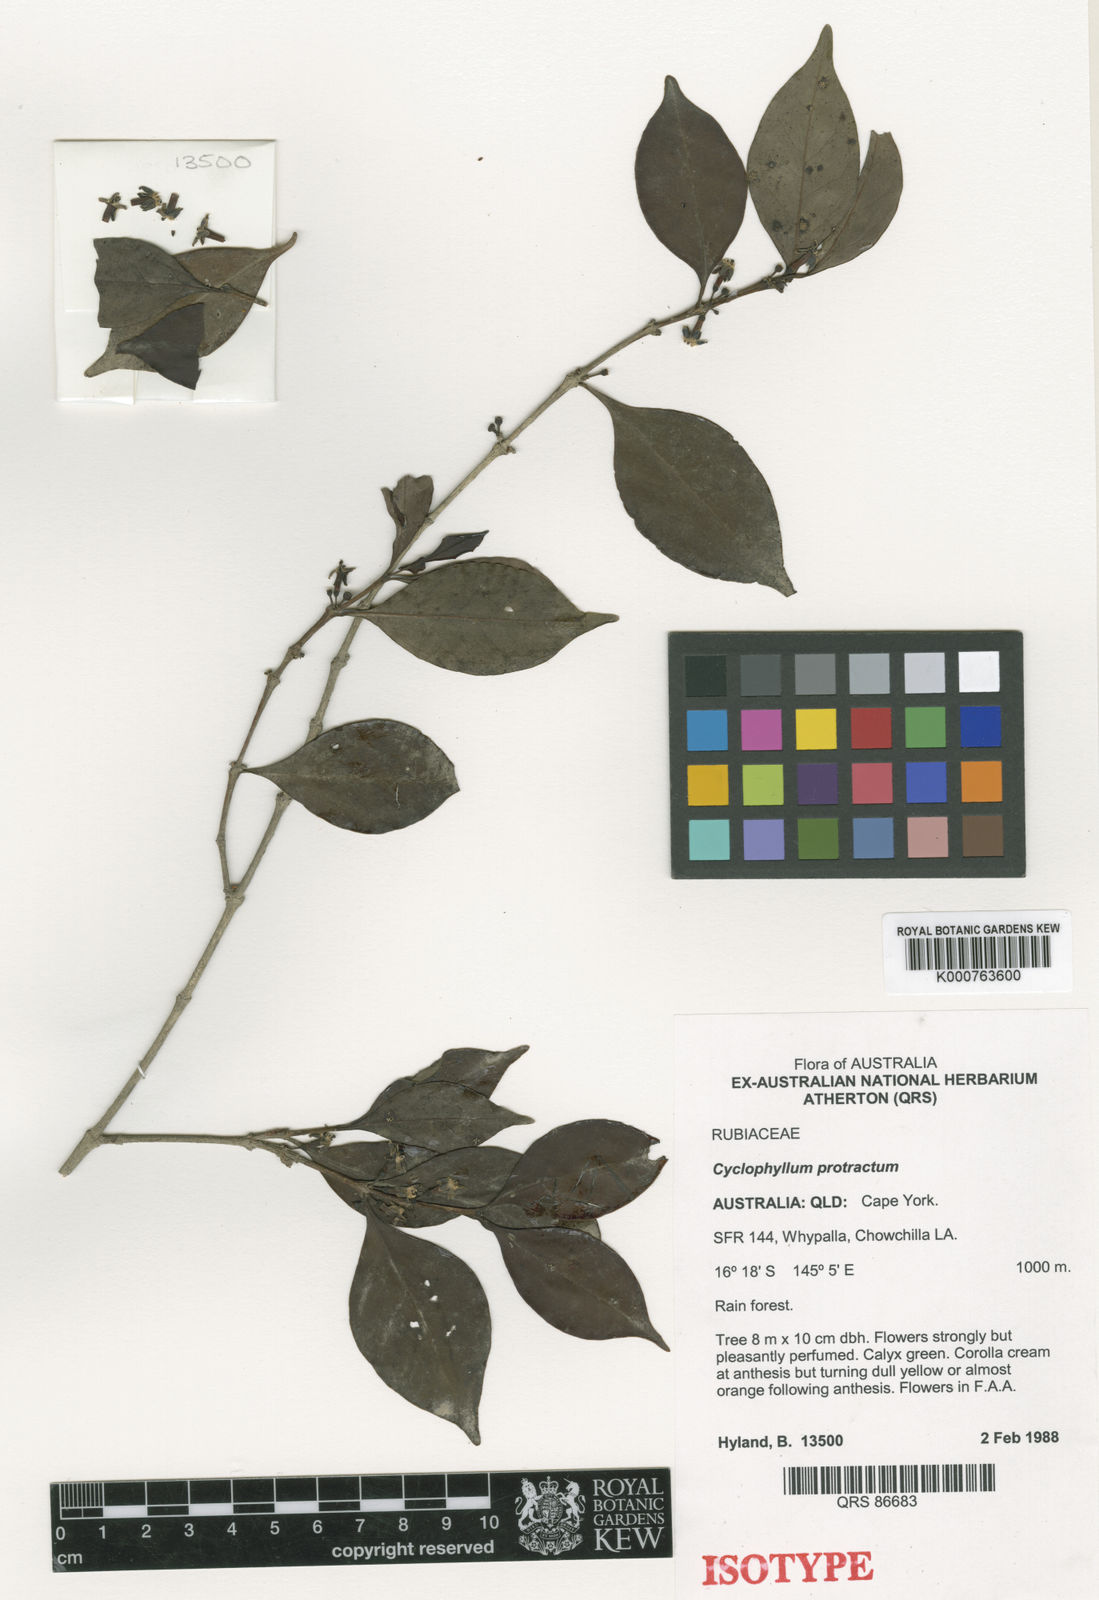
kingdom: Plantae
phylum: Tracheophyta
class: Magnoliopsida
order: Gentianales
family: Rubiaceae
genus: Cyclophyllum
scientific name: Cyclophyllum protractum
